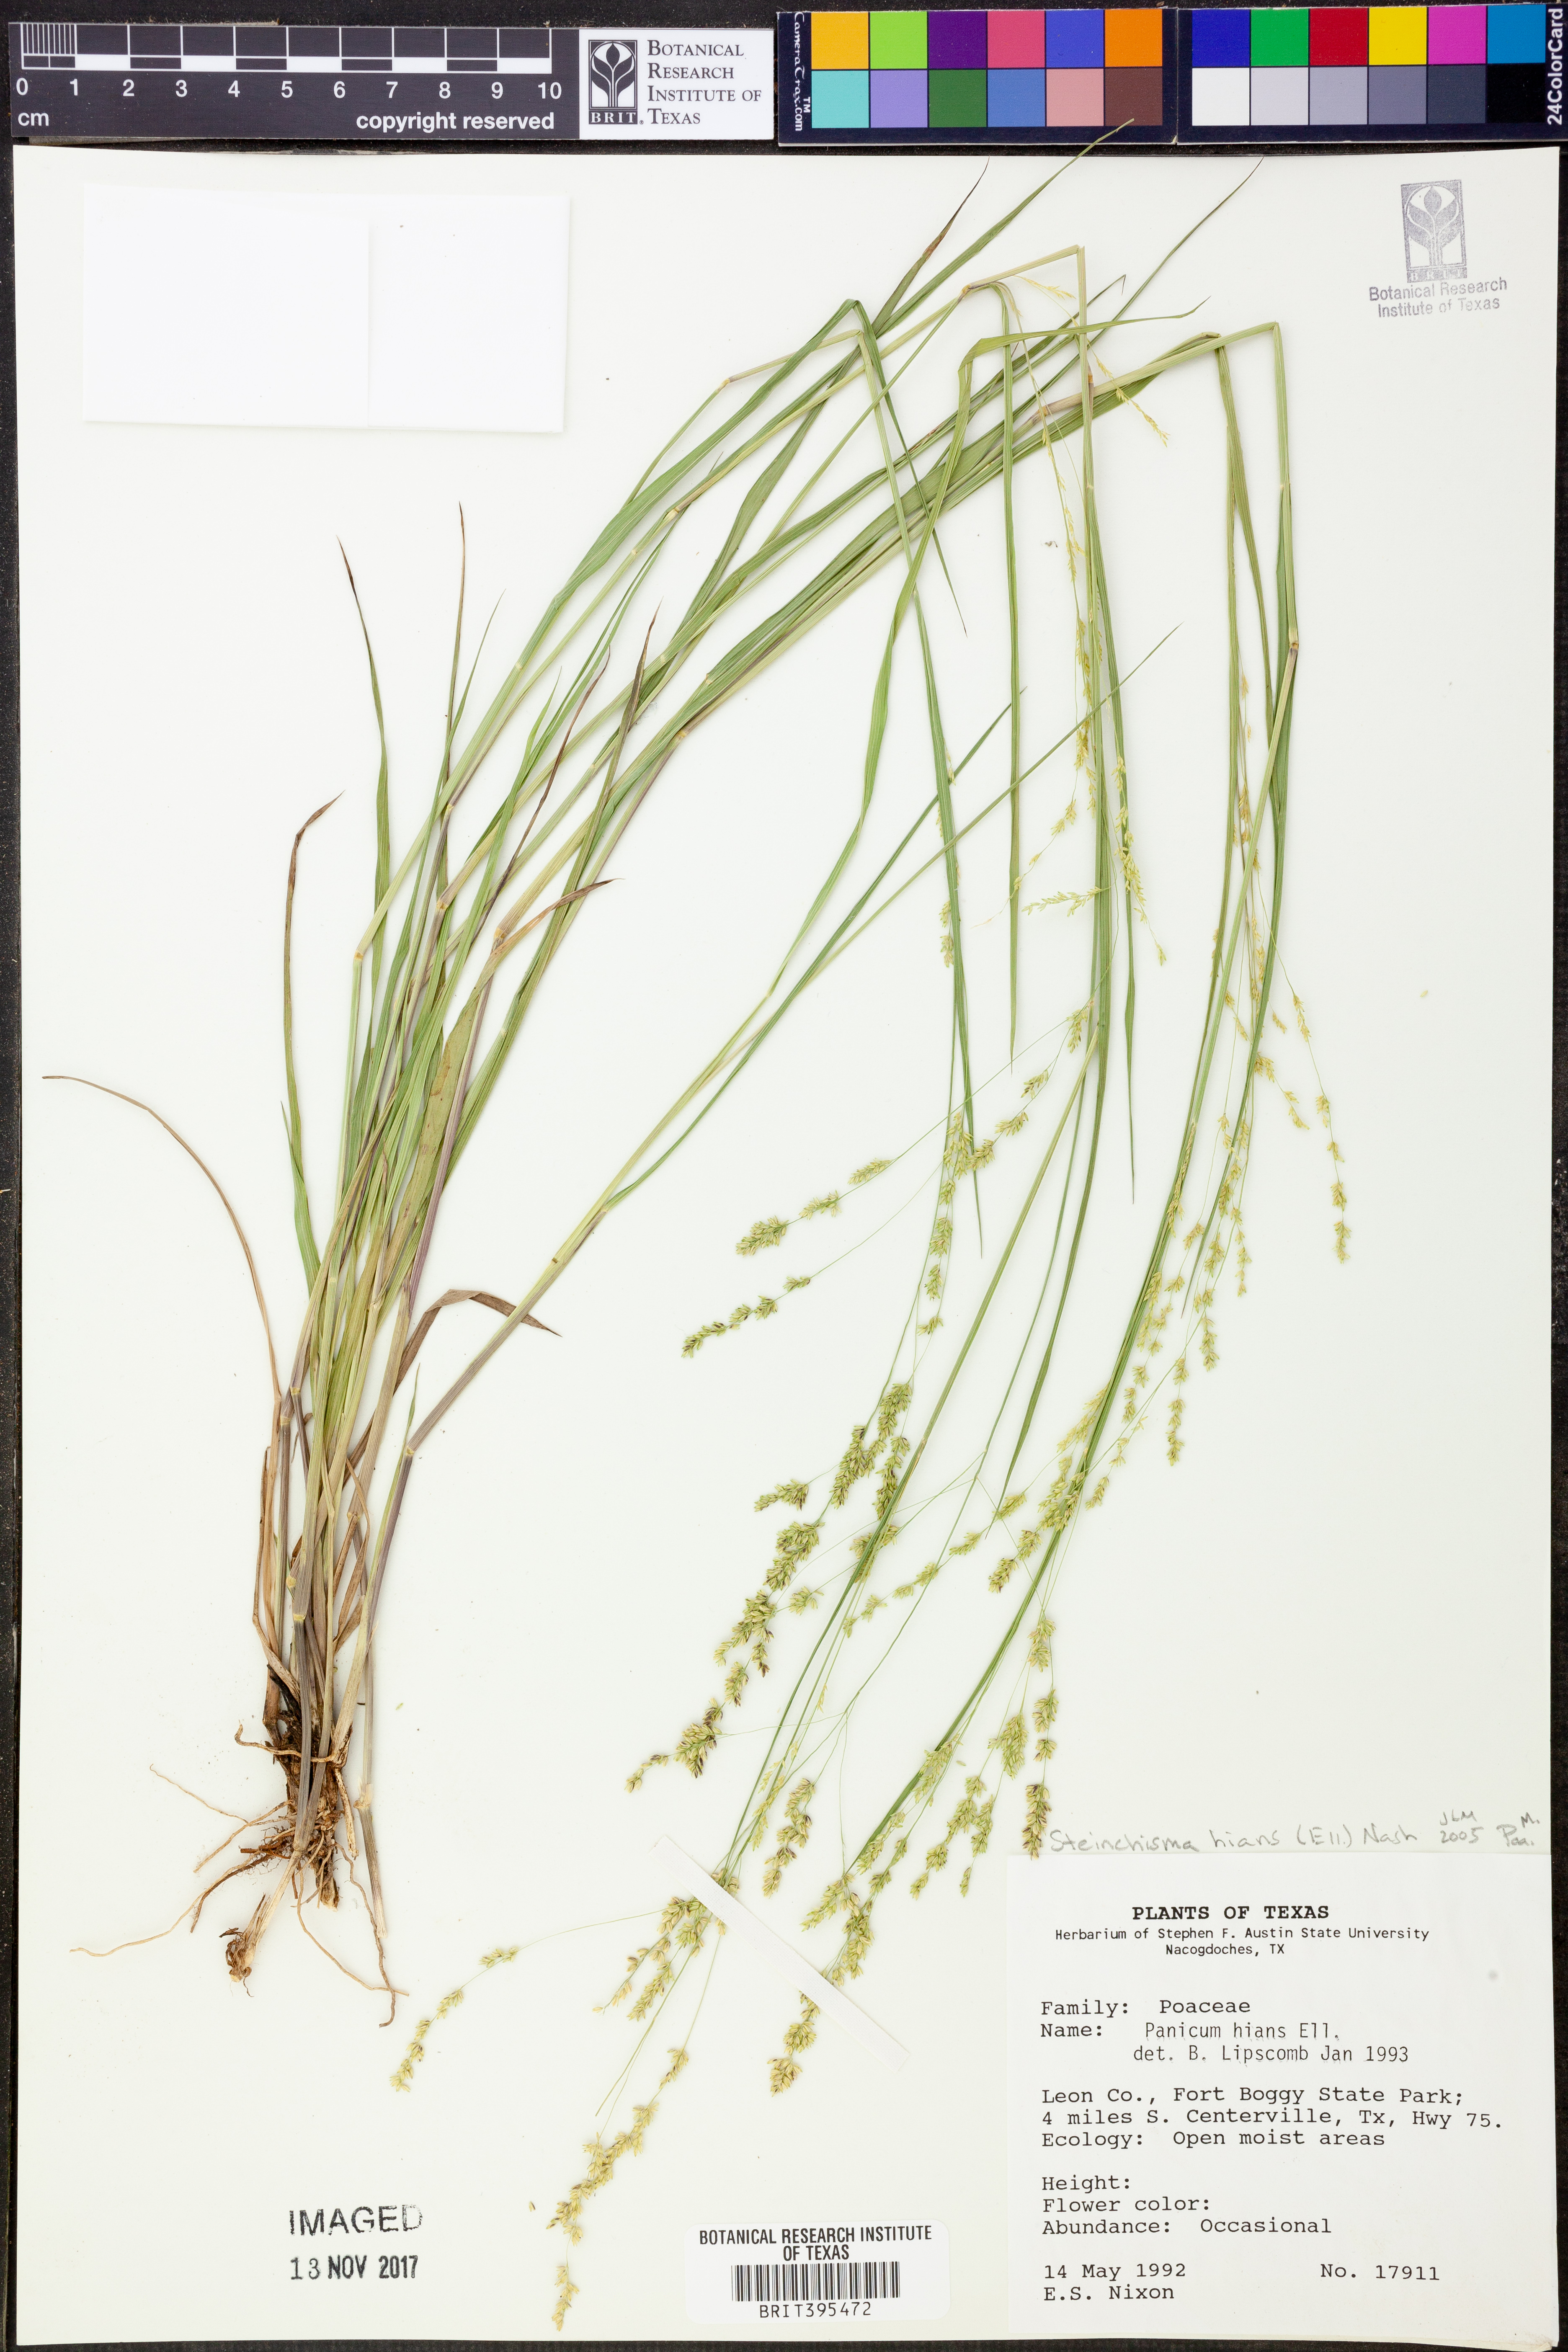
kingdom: Plantae
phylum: Tracheophyta
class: Liliopsida
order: Poales
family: Poaceae
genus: Steinchisma
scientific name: Steinchisma hians
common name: Gaping panic grass
